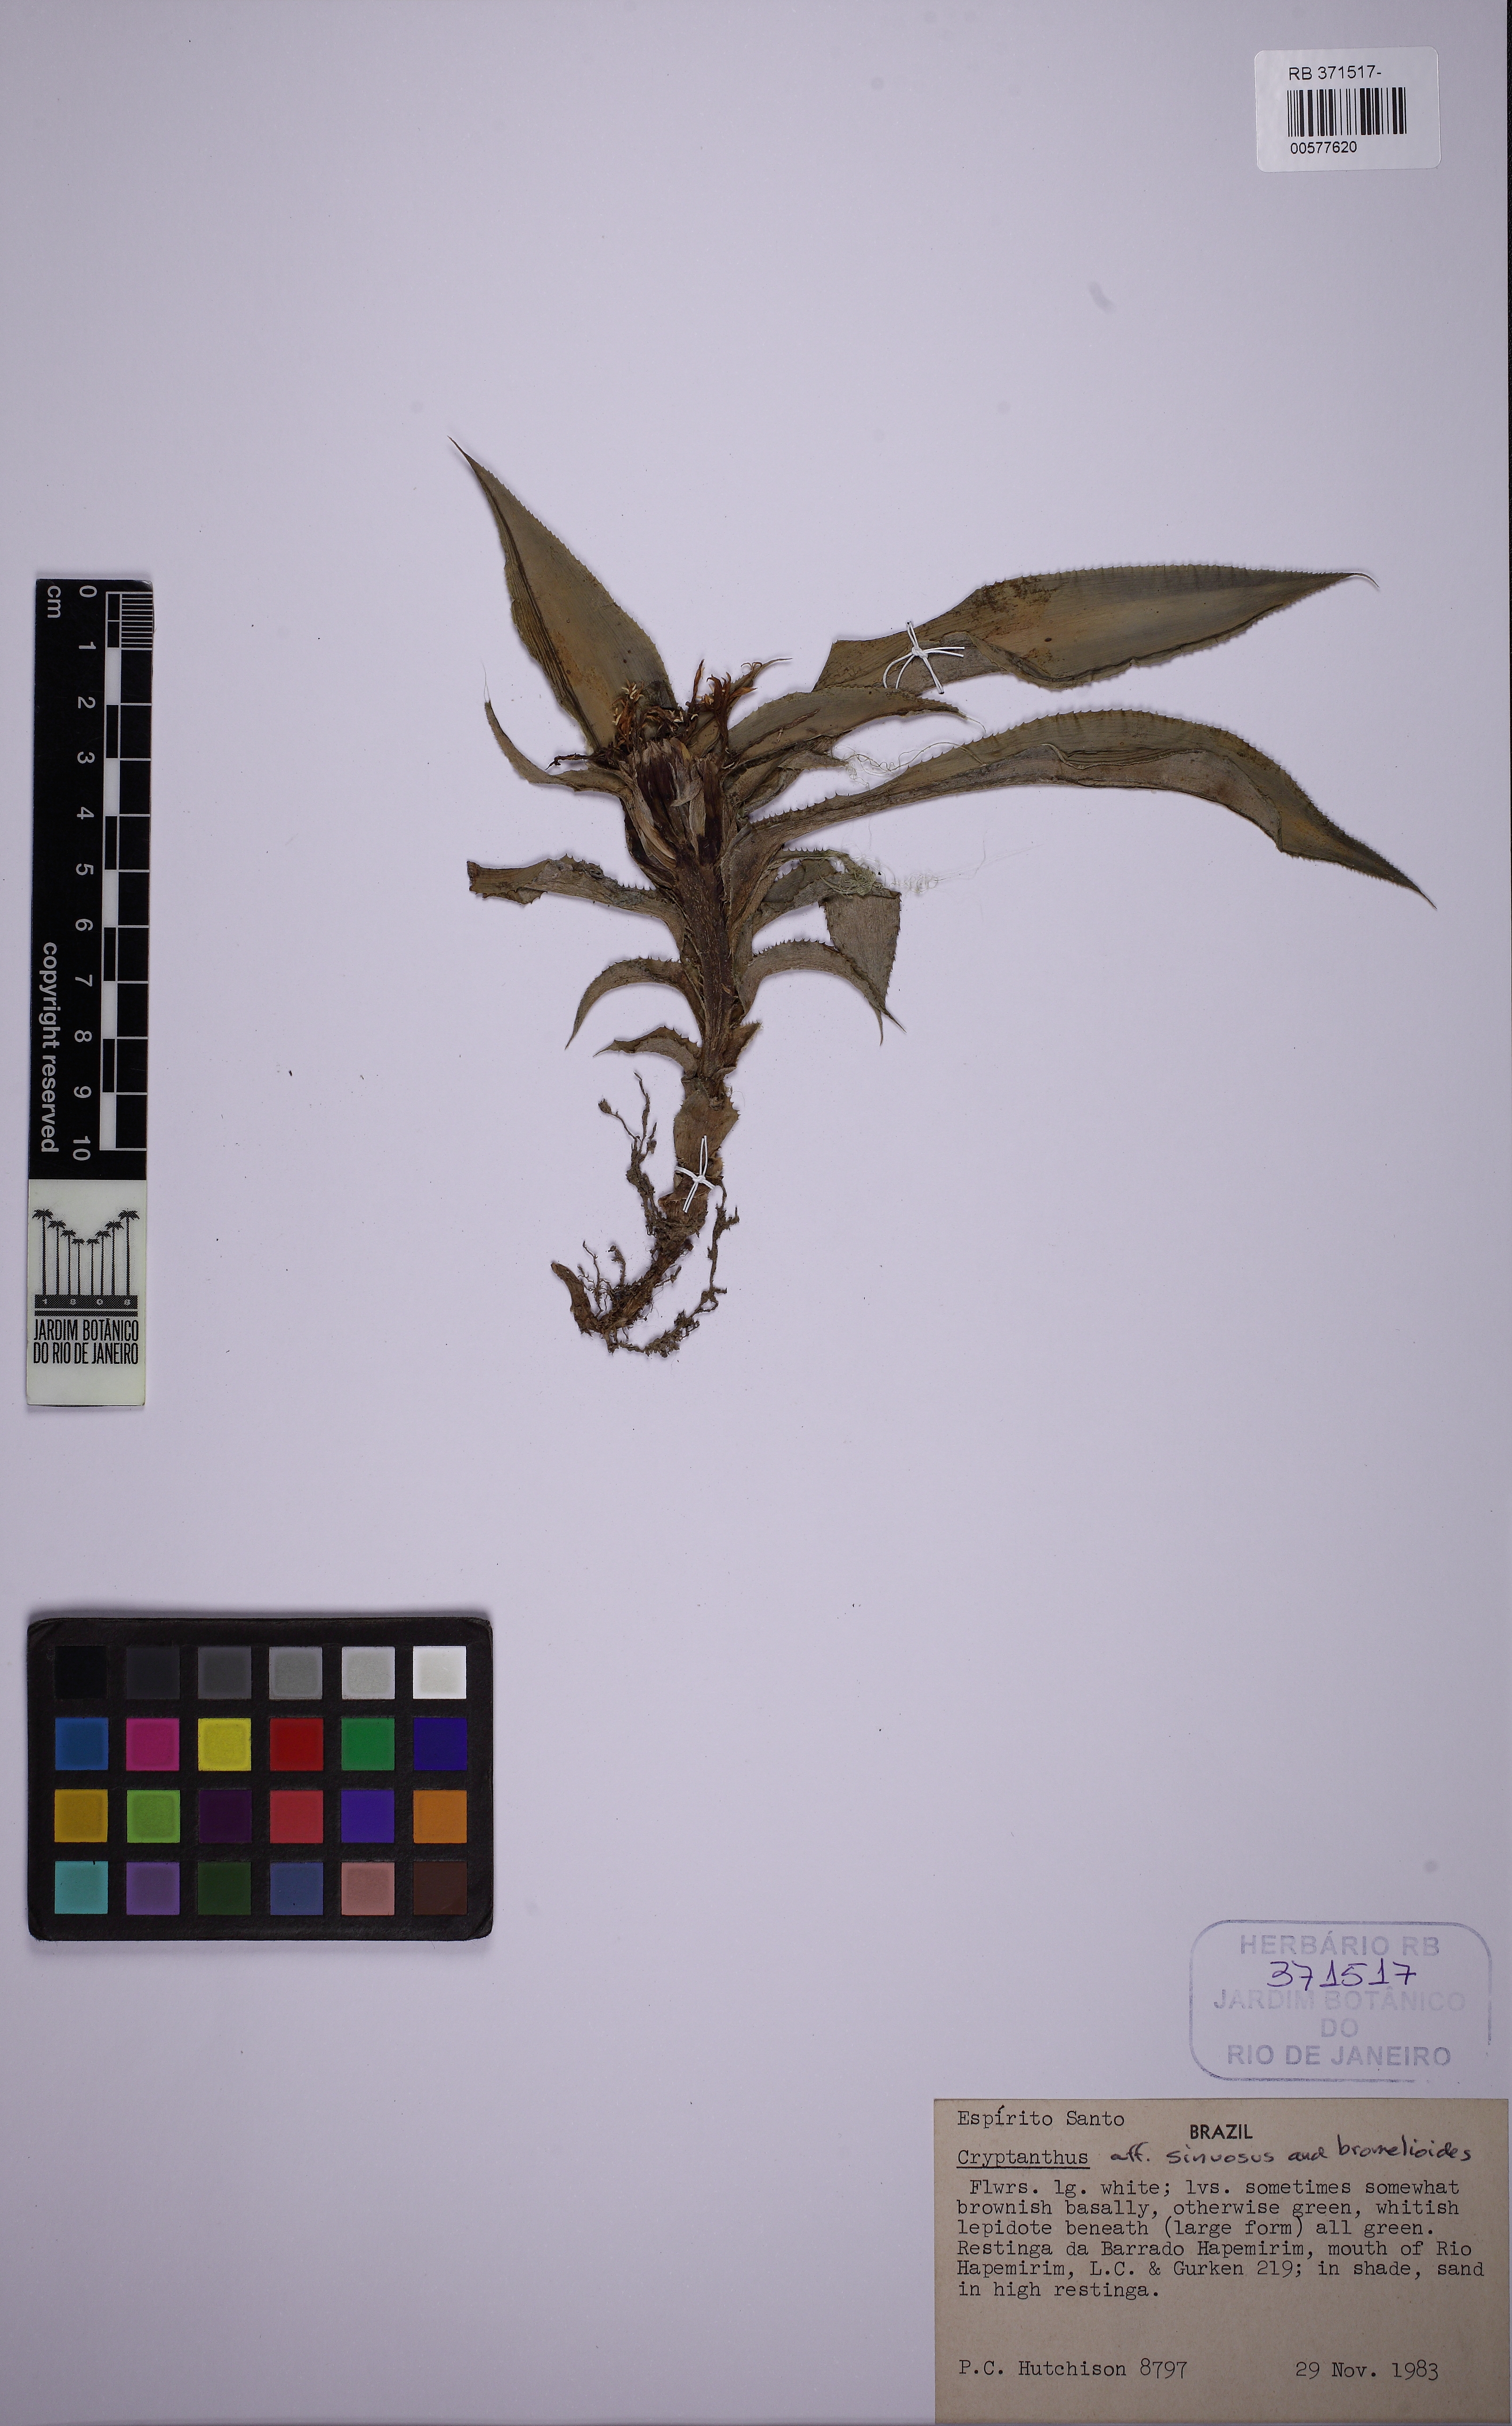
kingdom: Plantae
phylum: Tracheophyta
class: Liliopsida
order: Poales
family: Bromeliaceae
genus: Cryptanthus
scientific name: Cryptanthus acaulis
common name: Starfishplant
